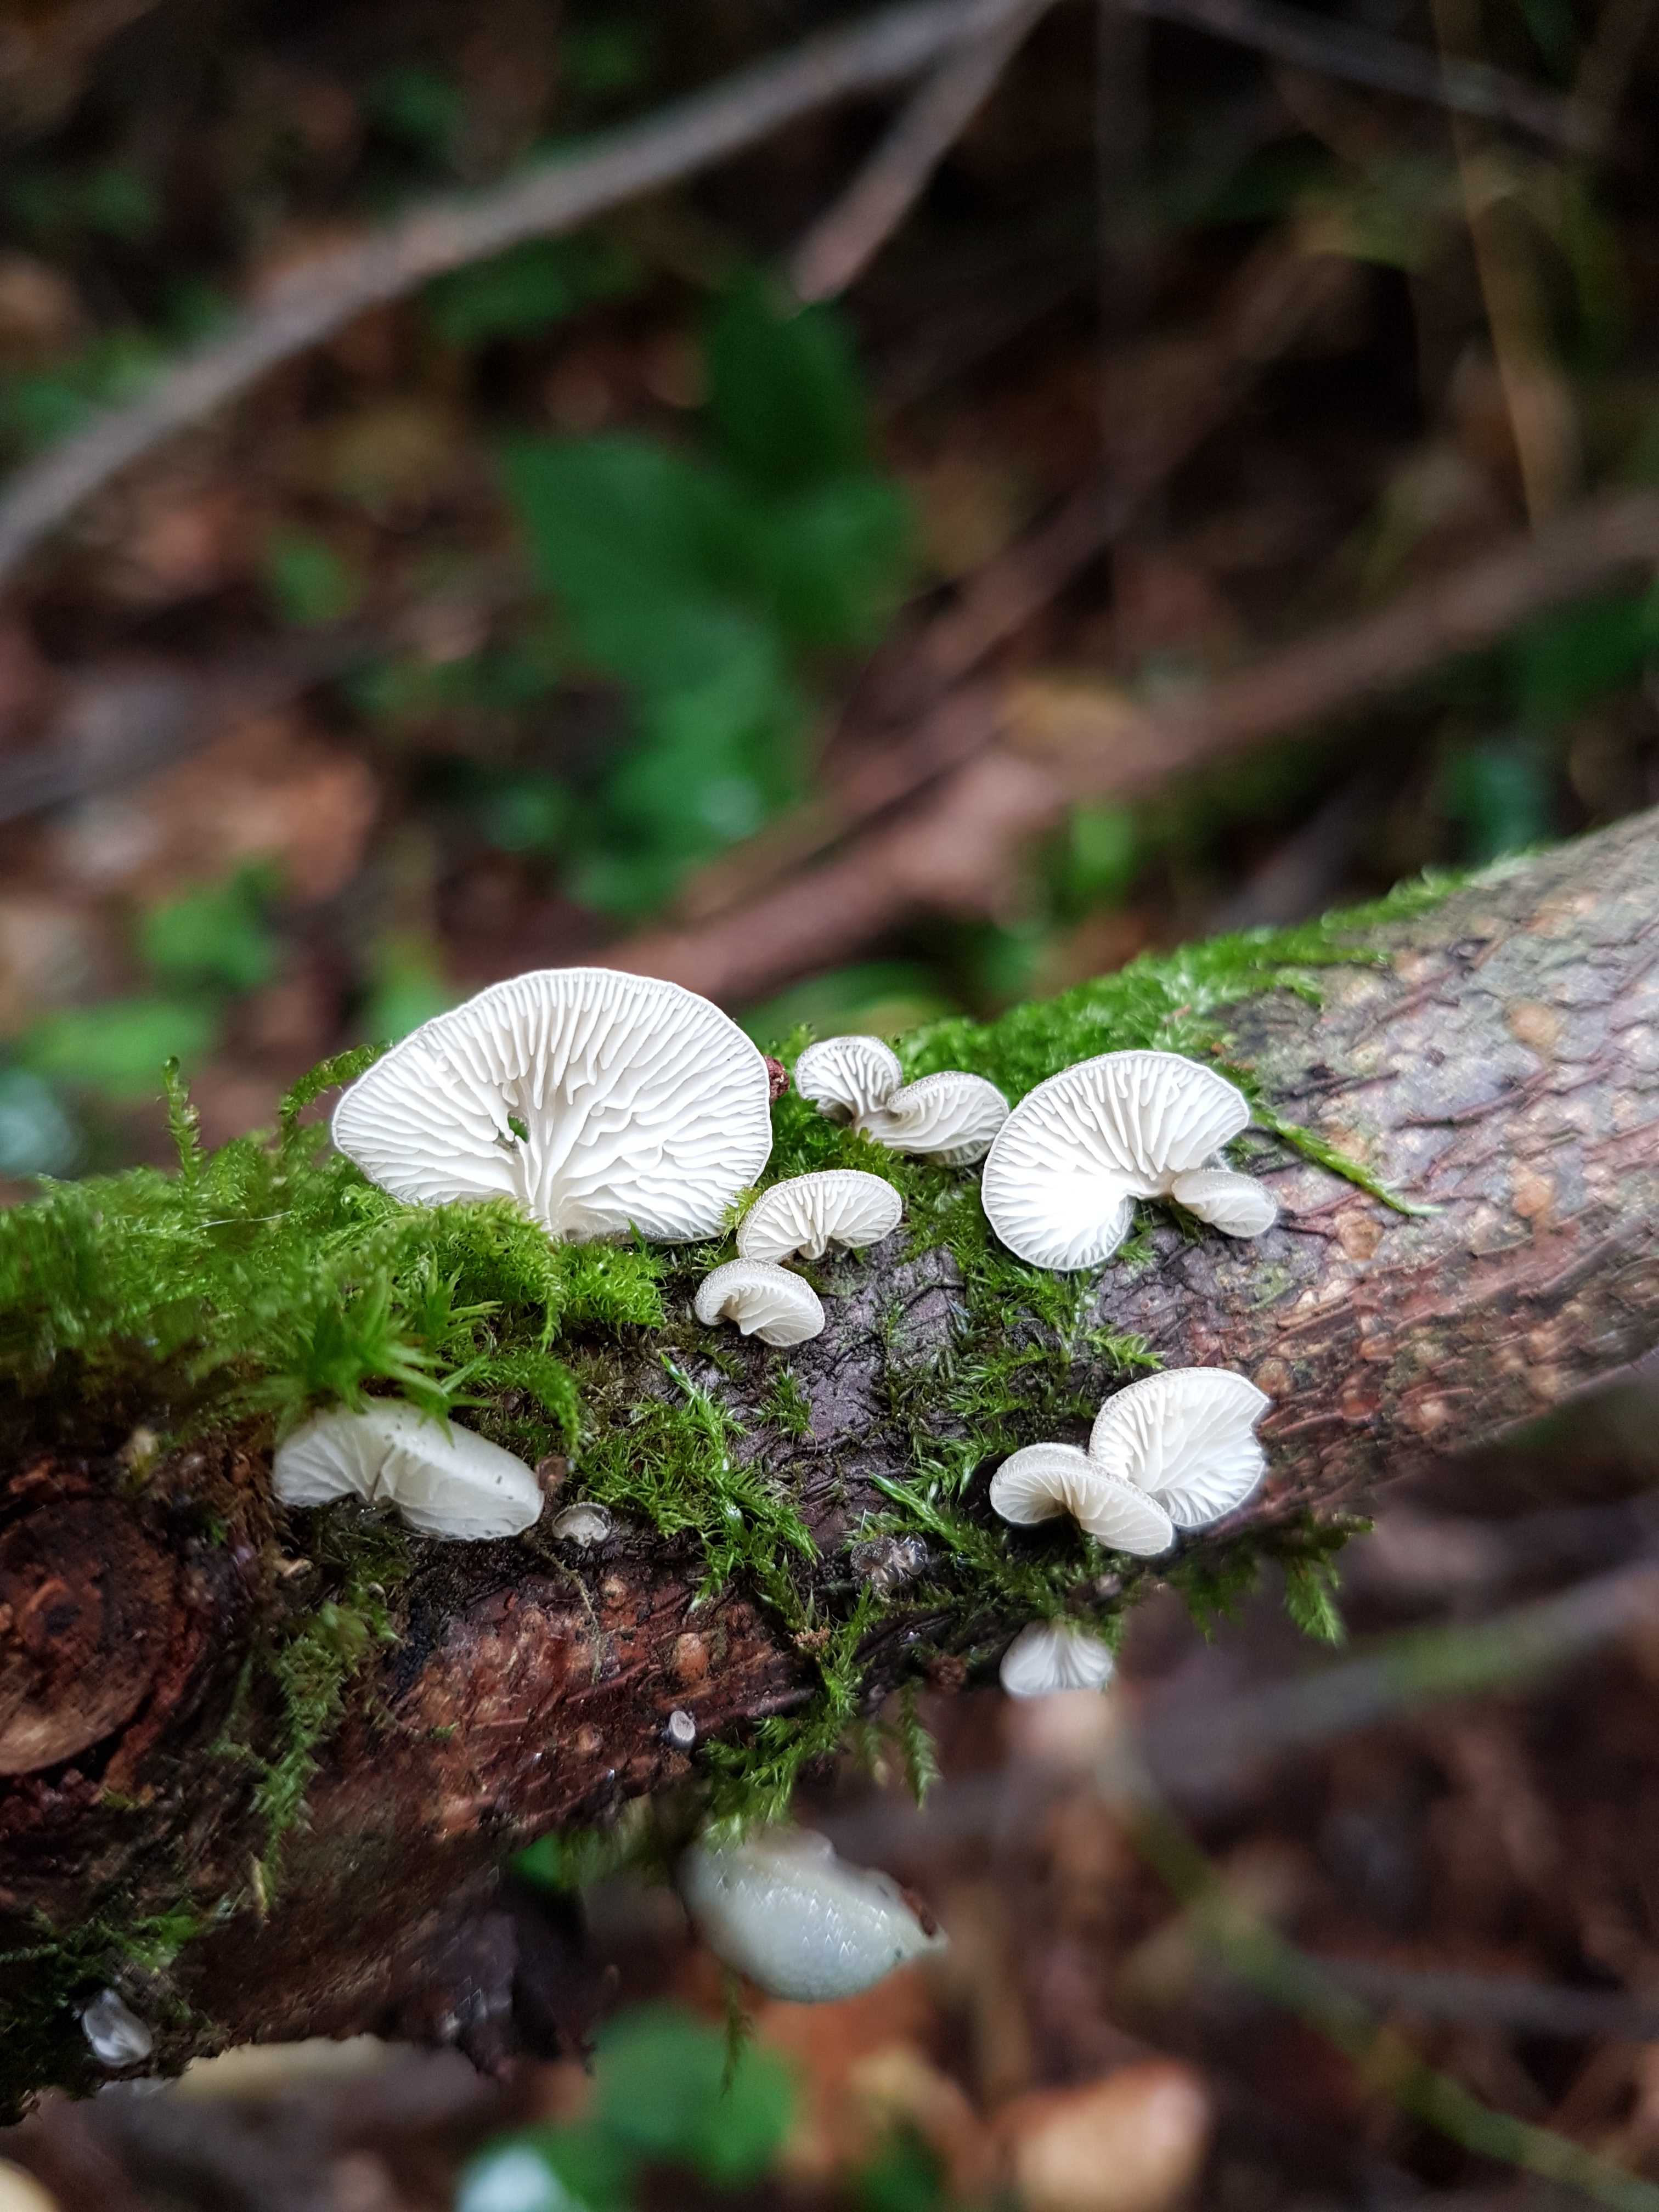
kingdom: Fungi
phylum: Basidiomycota
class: Agaricomycetes
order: Agaricales
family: Pleurotaceae
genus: Hohenbuehelia
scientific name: Hohenbuehelia fluxilis
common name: pile-filthat
